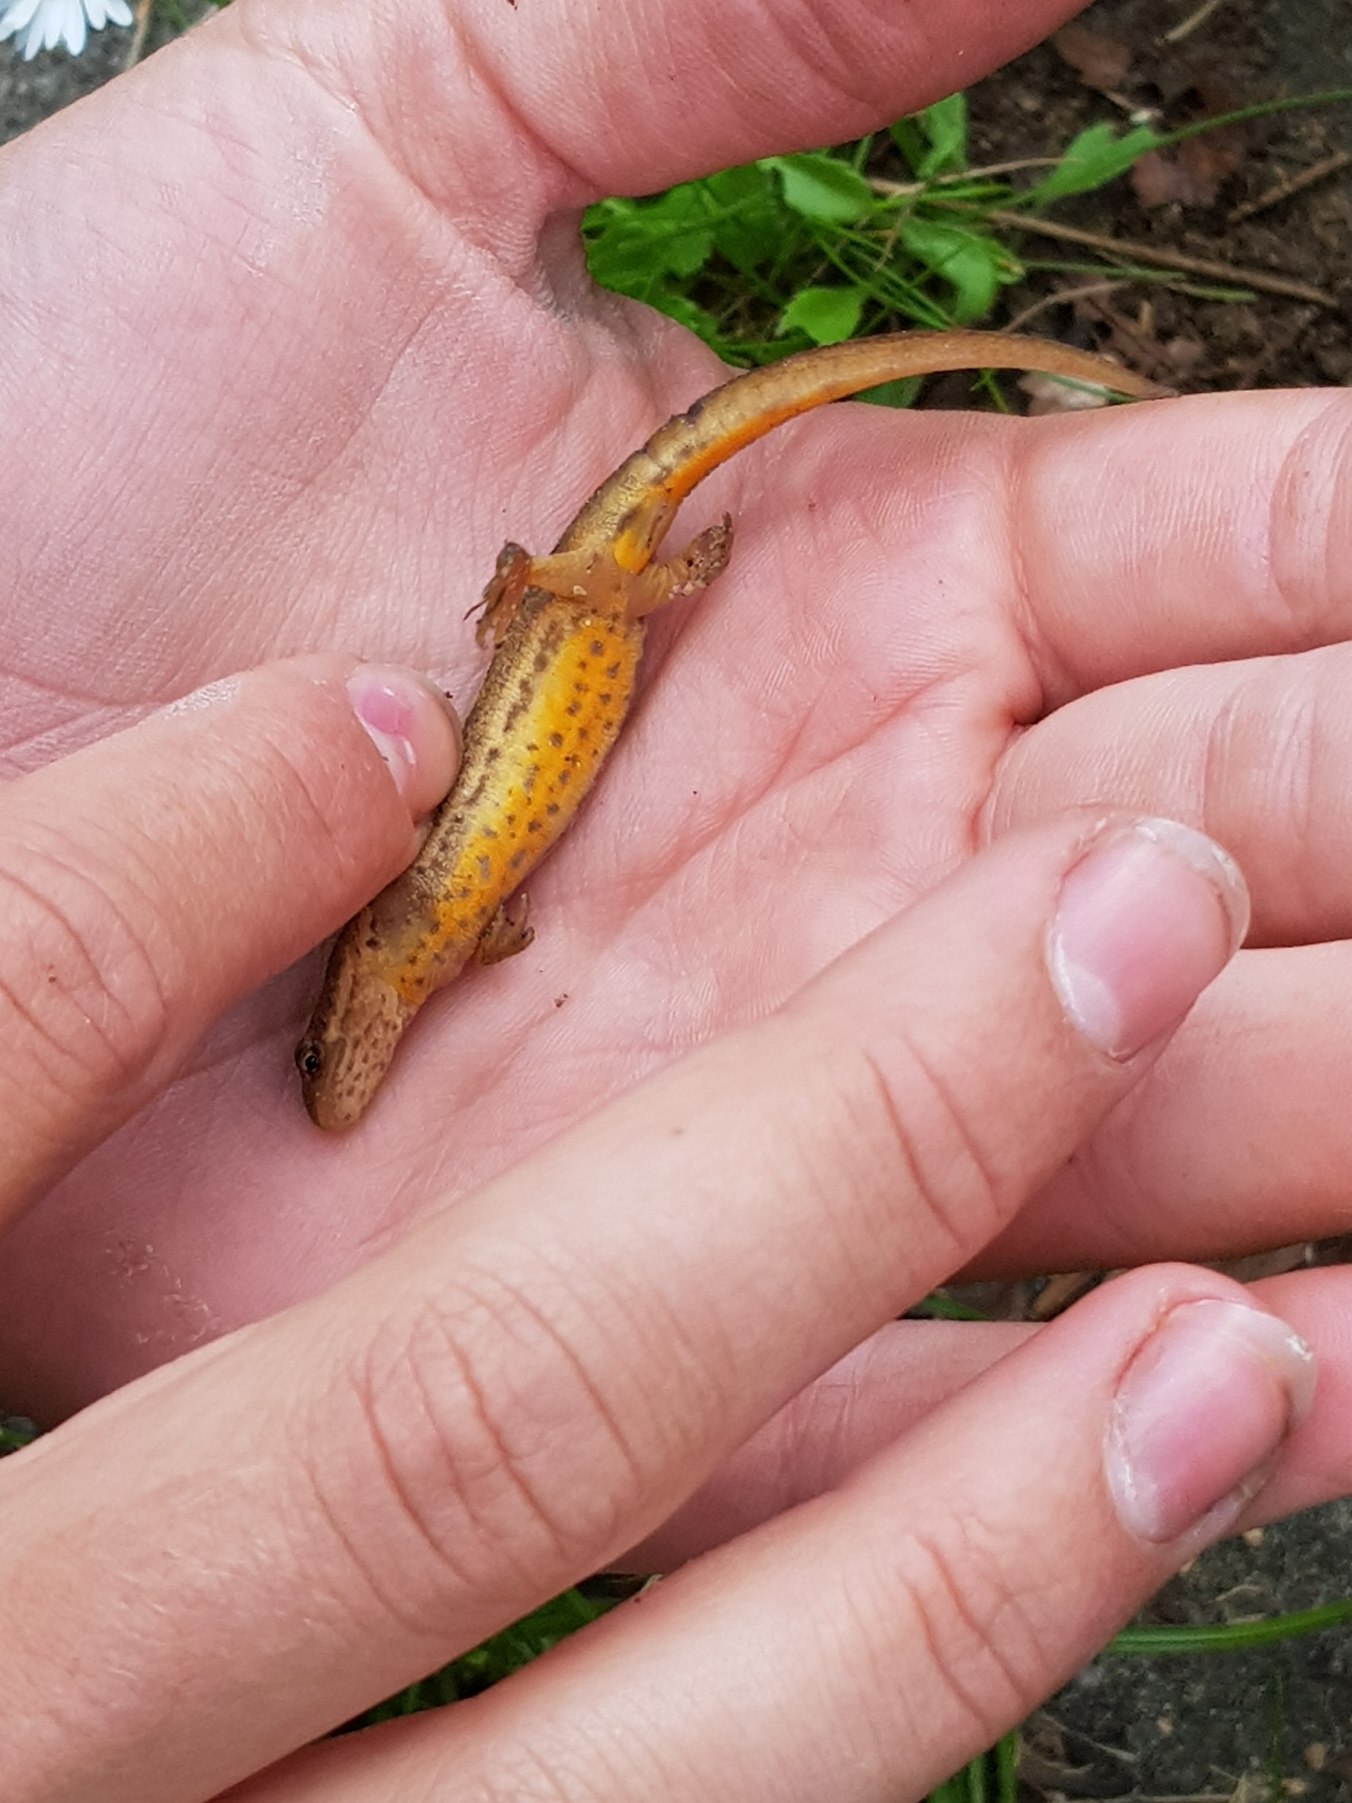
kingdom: Animalia
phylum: Chordata
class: Amphibia
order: Caudata
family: Salamandridae
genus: Lissotriton
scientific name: Lissotriton vulgaris
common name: Lille vandsalamander
